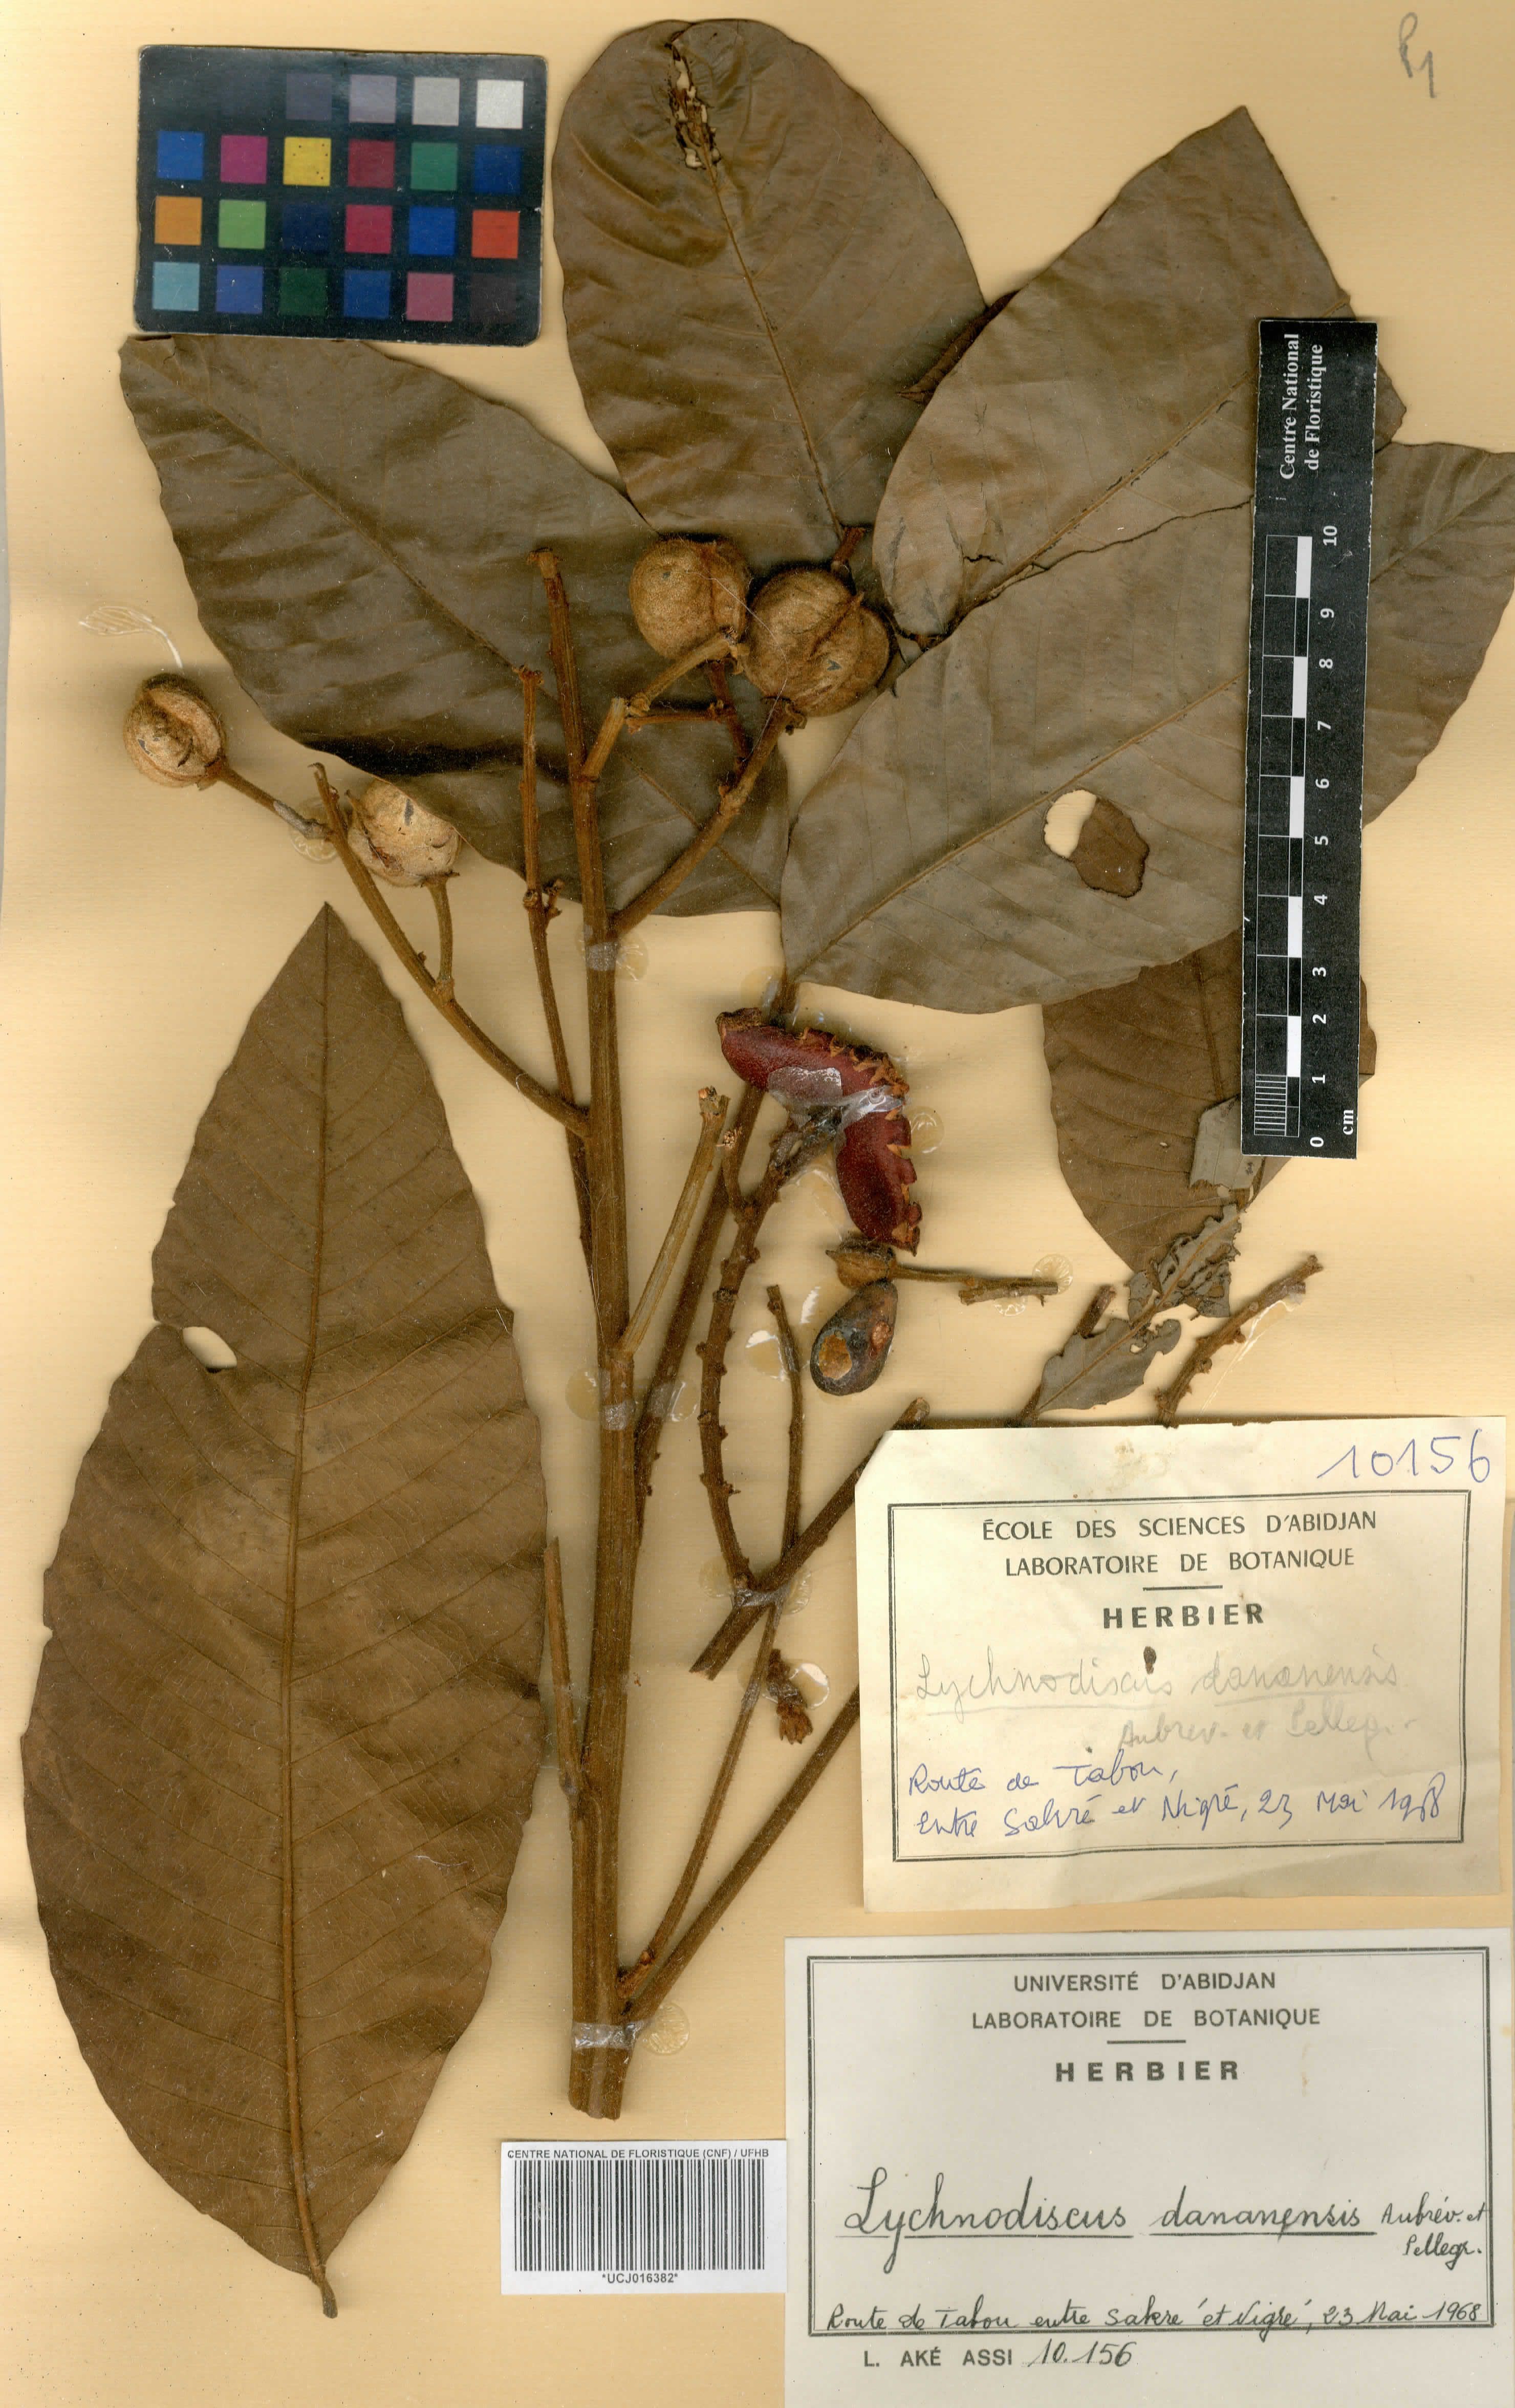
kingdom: Plantae
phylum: Tracheophyta
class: Magnoliopsida
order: Sapindales
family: Sapindaceae
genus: Lychnodiscus
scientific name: Lychnodiscus dananensis
